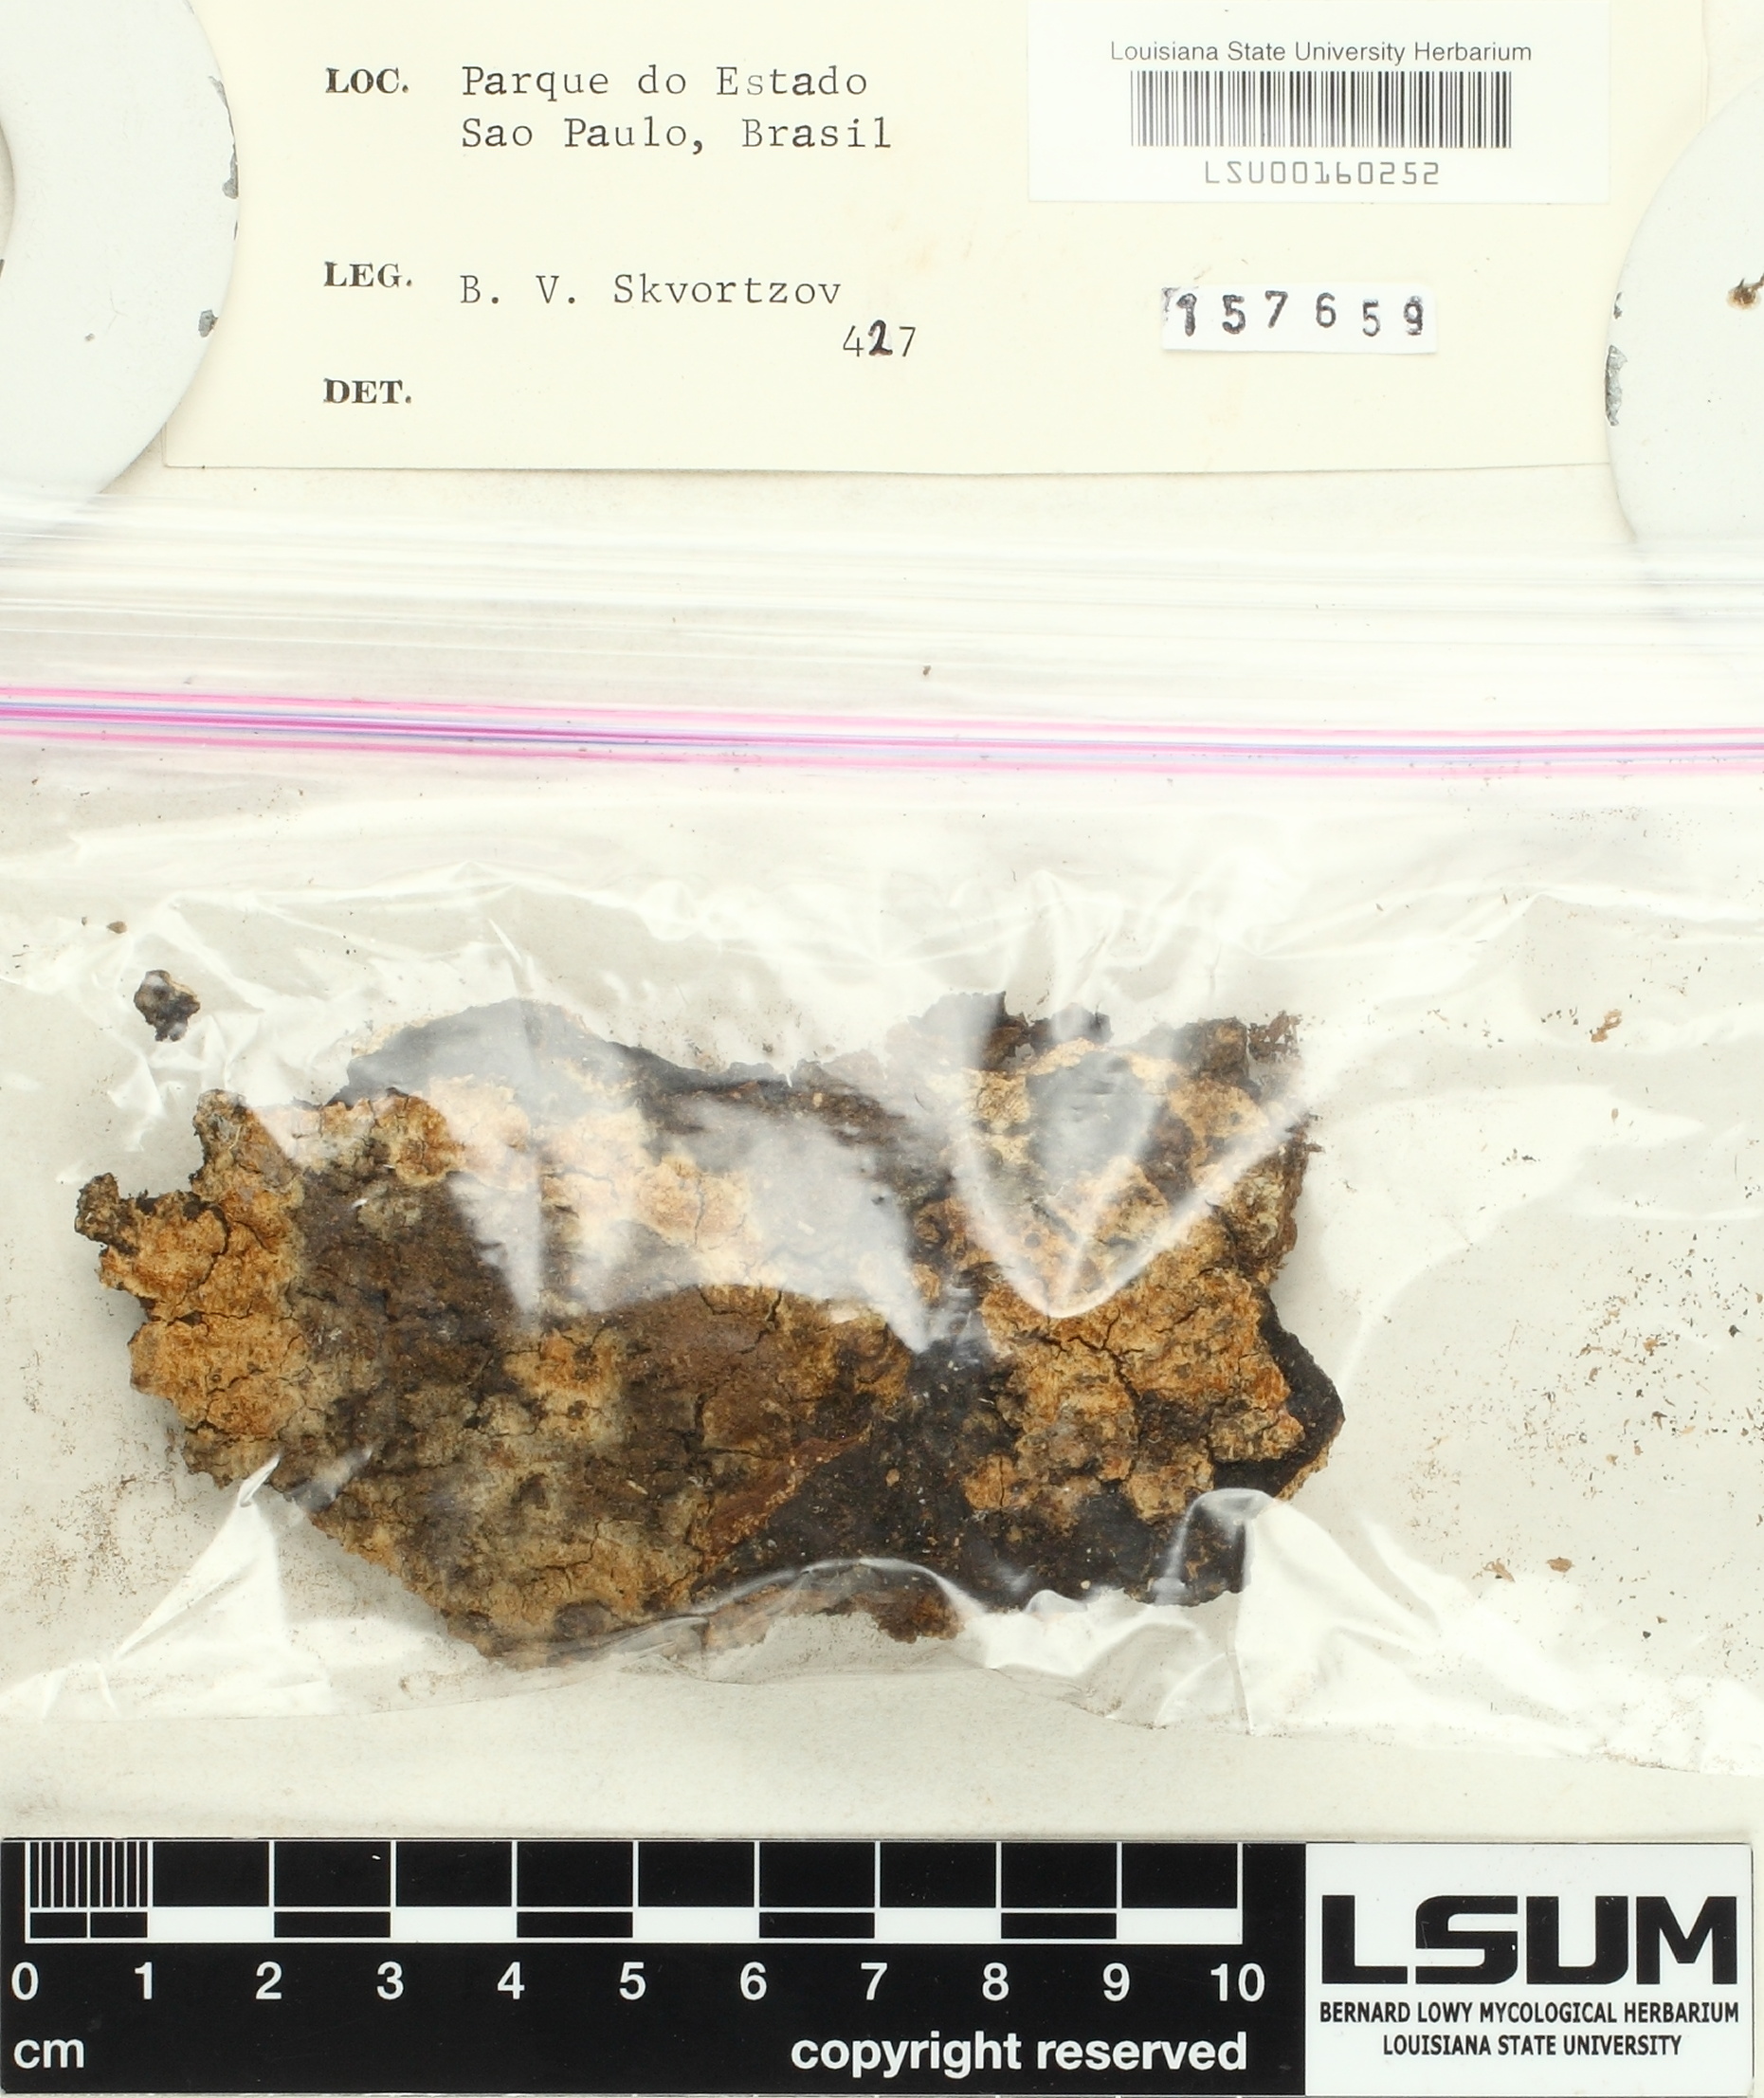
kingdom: Fungi
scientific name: Fungi
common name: Fungi
